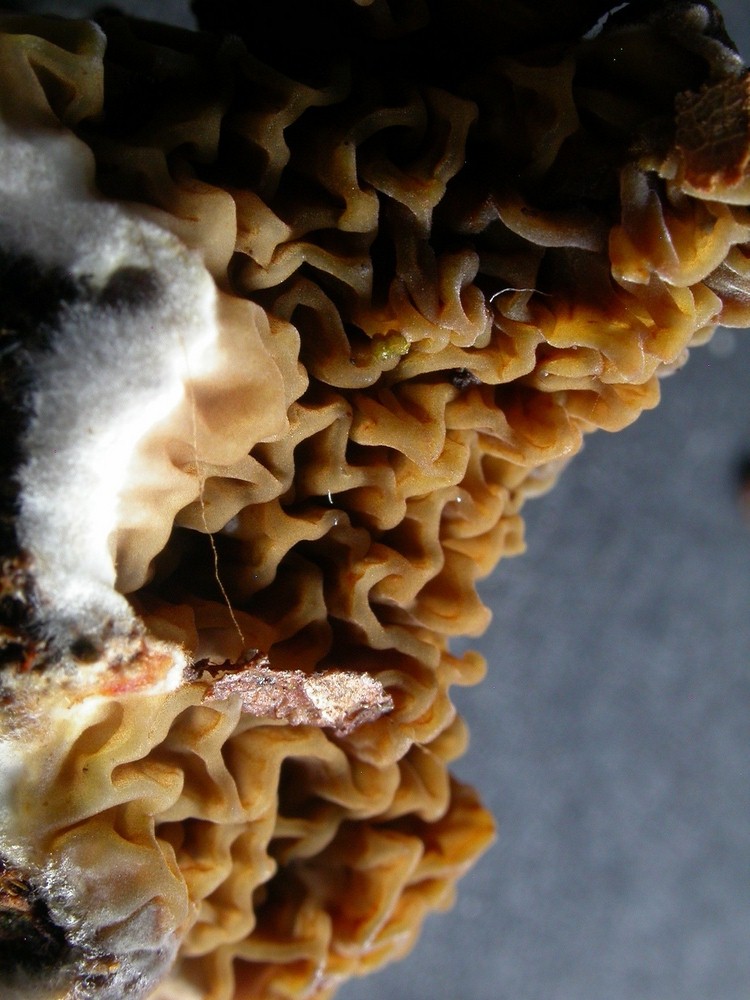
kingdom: Fungi
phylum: Basidiomycota
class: Agaricomycetes
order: Boletales
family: Serpulaceae
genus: Serpula
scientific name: Serpula himantioides
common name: tyndkødet hussvamp
